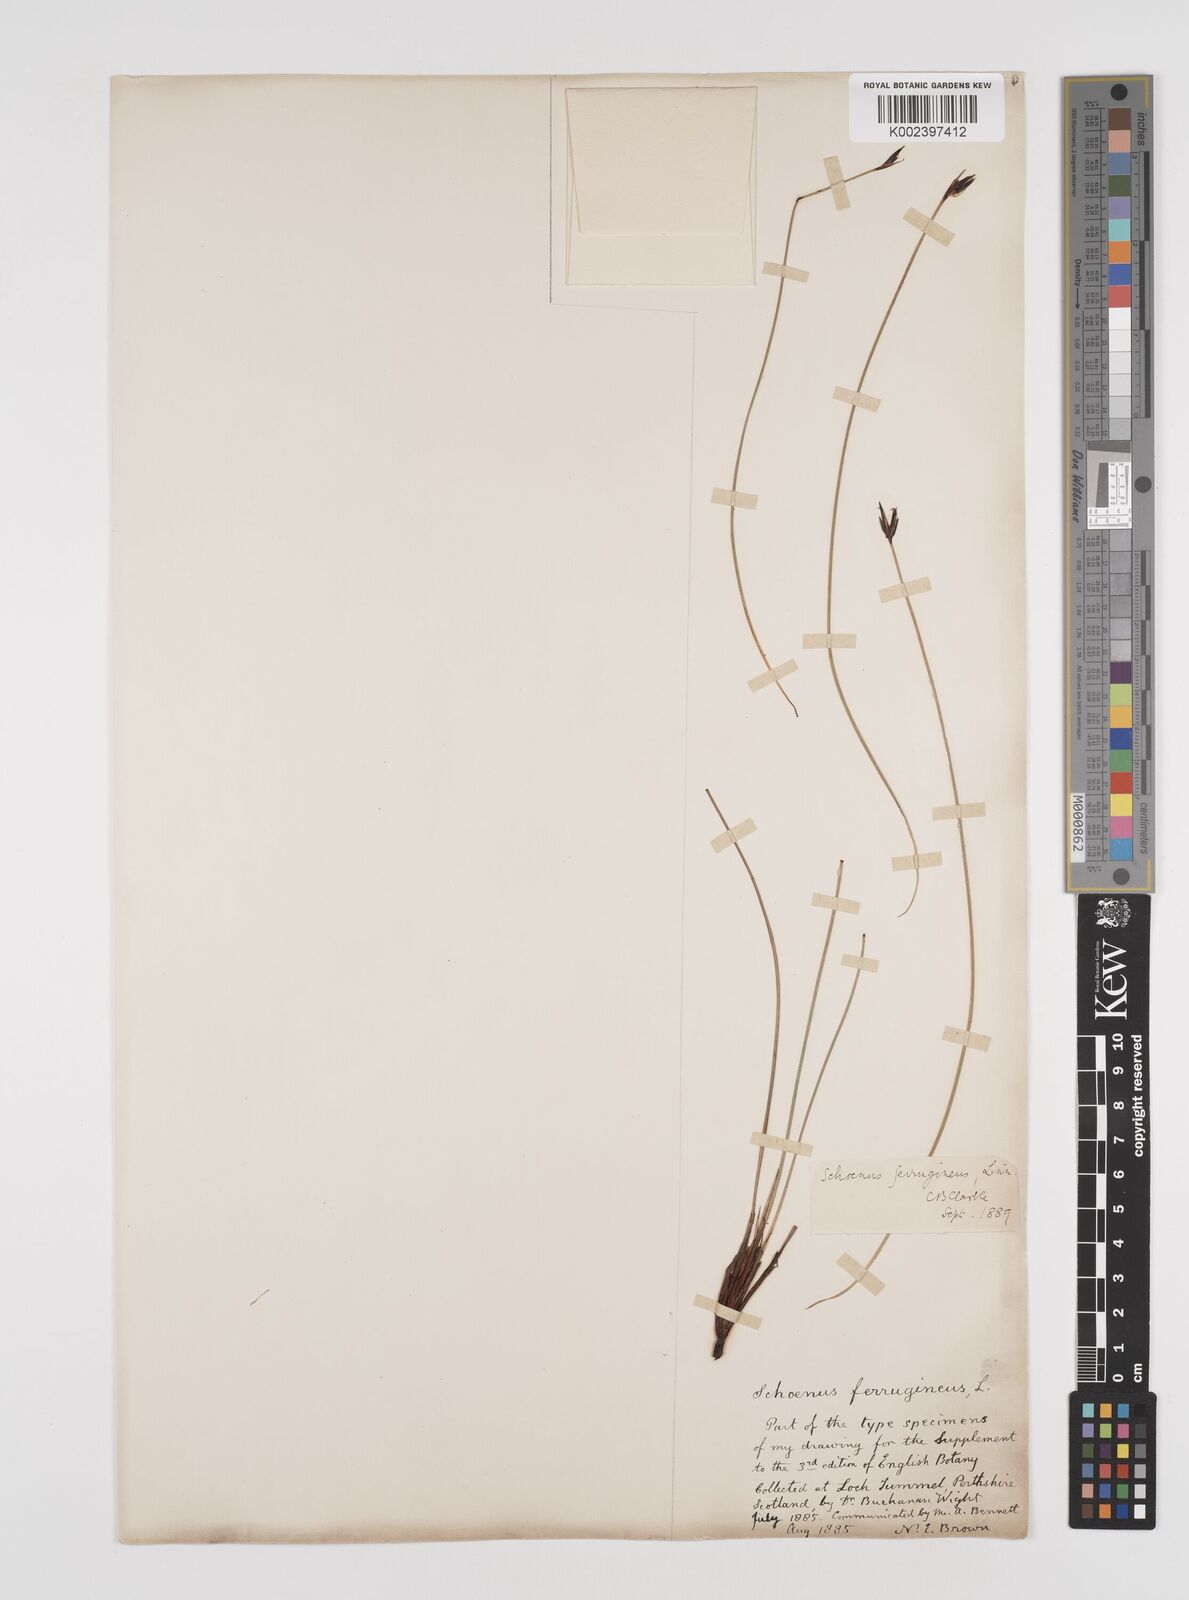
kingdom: Plantae
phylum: Tracheophyta
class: Liliopsida
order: Poales
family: Cyperaceae
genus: Schoenus
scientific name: Schoenus ferrugineus
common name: Brown bog-rush
